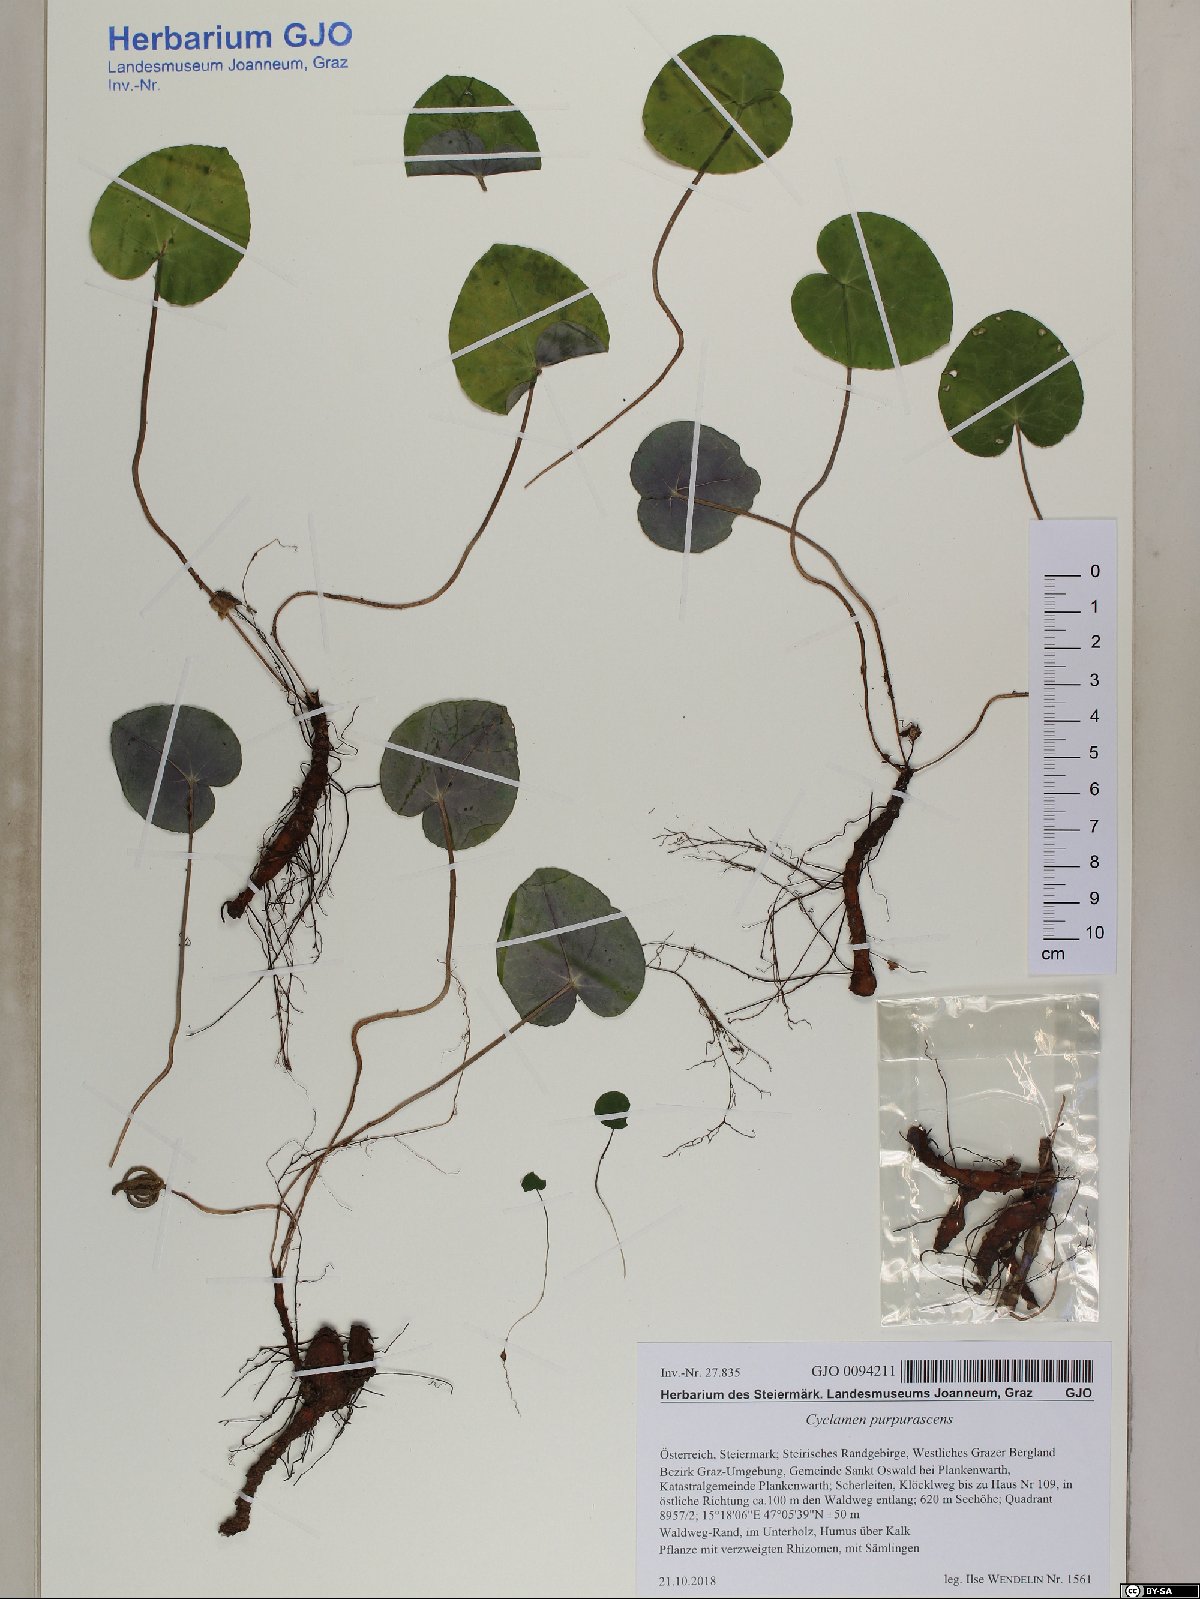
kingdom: Plantae
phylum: Tracheophyta
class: Magnoliopsida
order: Ericales
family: Primulaceae
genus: Cyclamen
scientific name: Cyclamen purpurascens
